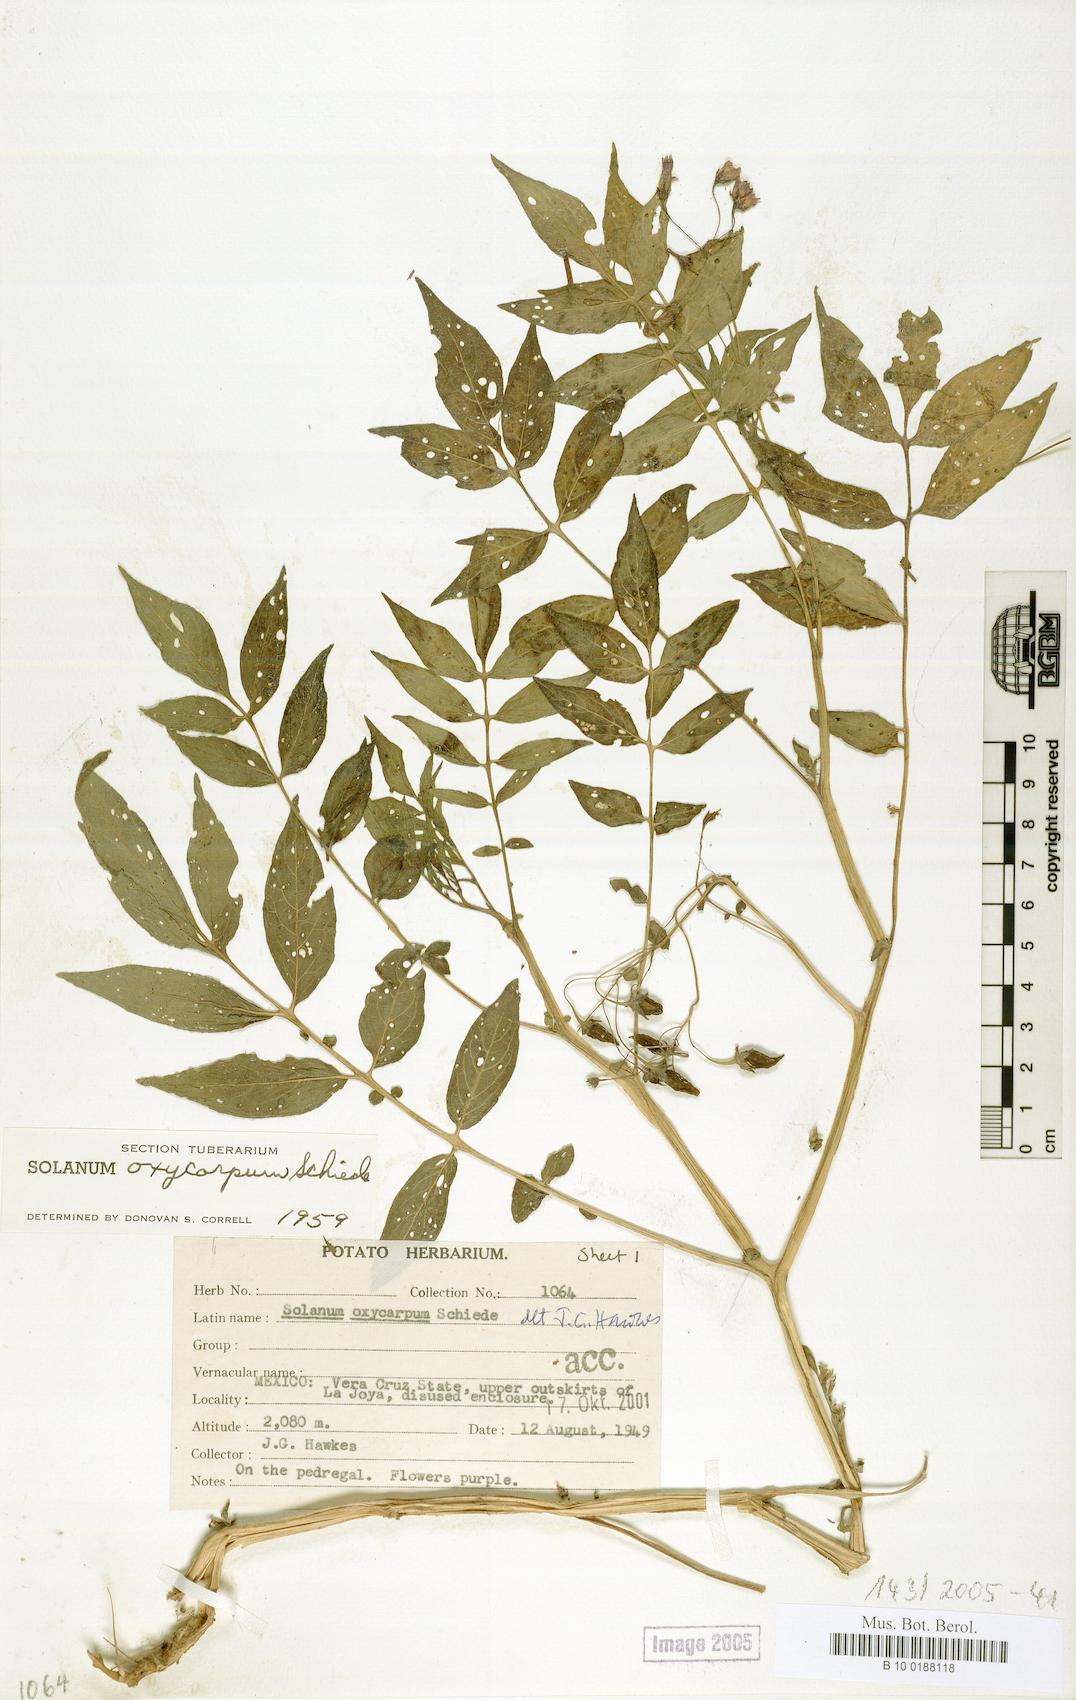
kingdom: Plantae
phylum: Tracheophyta
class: Magnoliopsida
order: Solanales
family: Solanaceae
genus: Solanum
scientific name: Solanum oxycarpum
